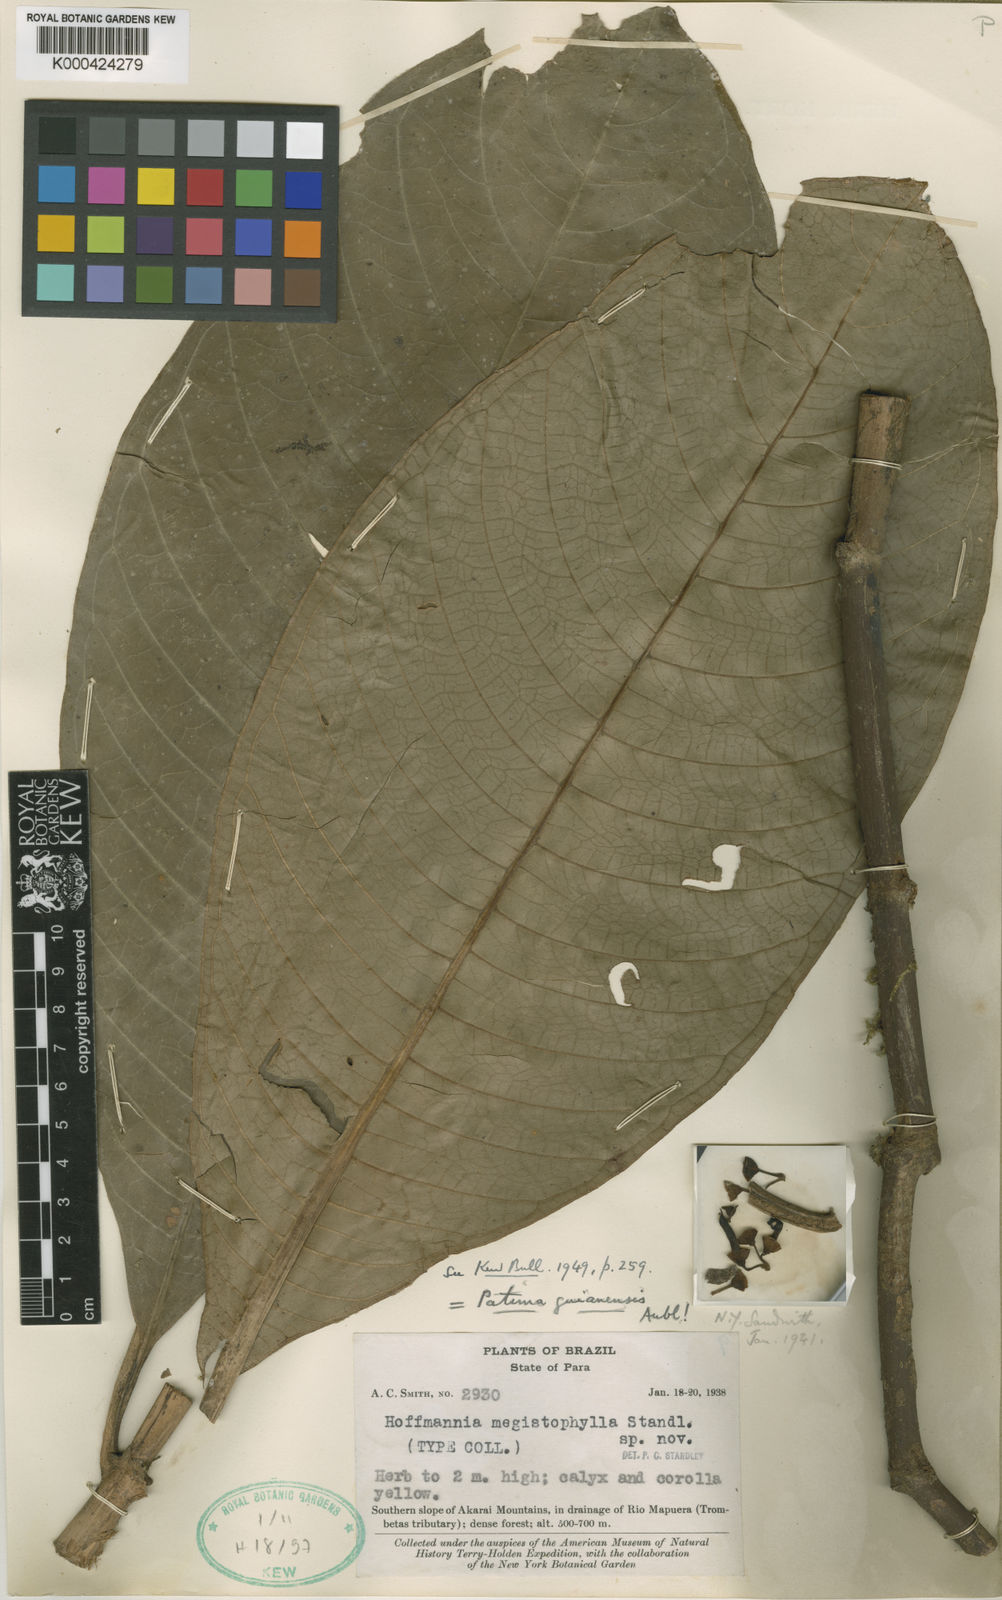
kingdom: Plantae
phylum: Tracheophyta
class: Magnoliopsida
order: Gentianales
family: Rubiaceae
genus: Patima
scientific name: Patima guianensis
